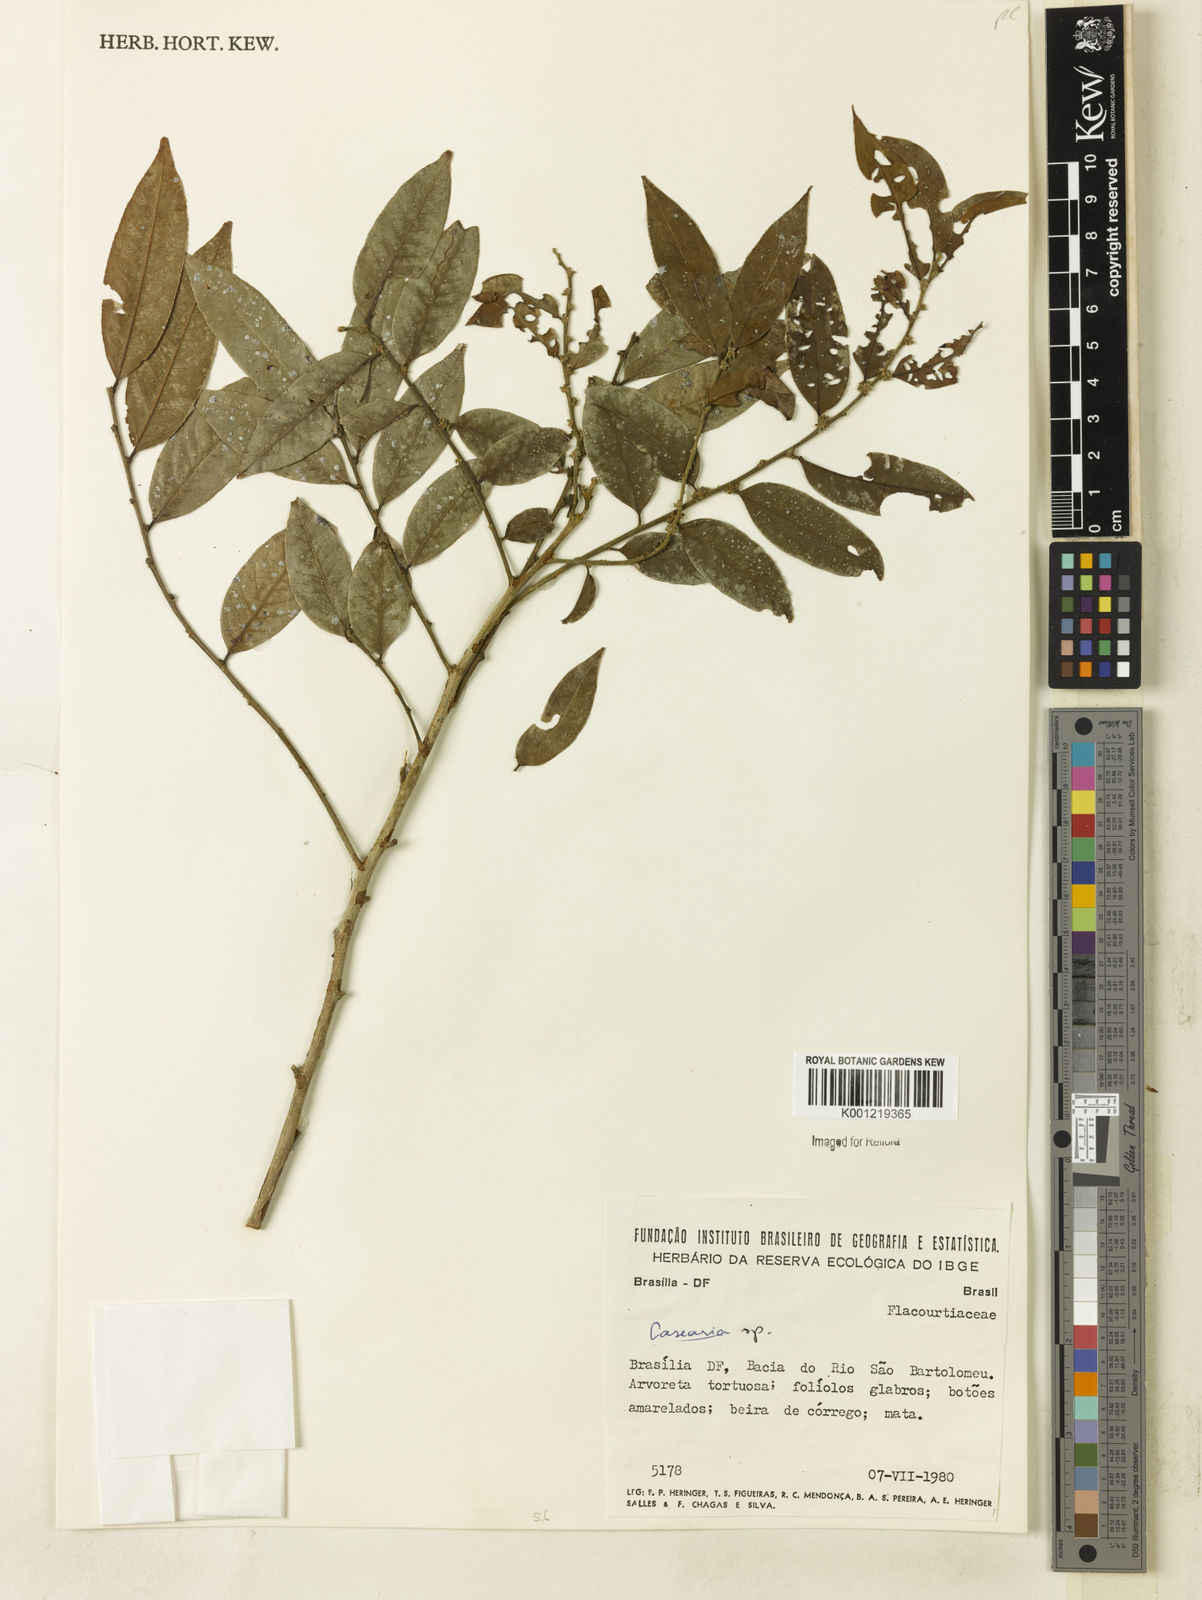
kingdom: Plantae
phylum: Tracheophyta
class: Magnoliopsida
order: Malpighiales
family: Salicaceae
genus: Casearia
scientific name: Casearia
